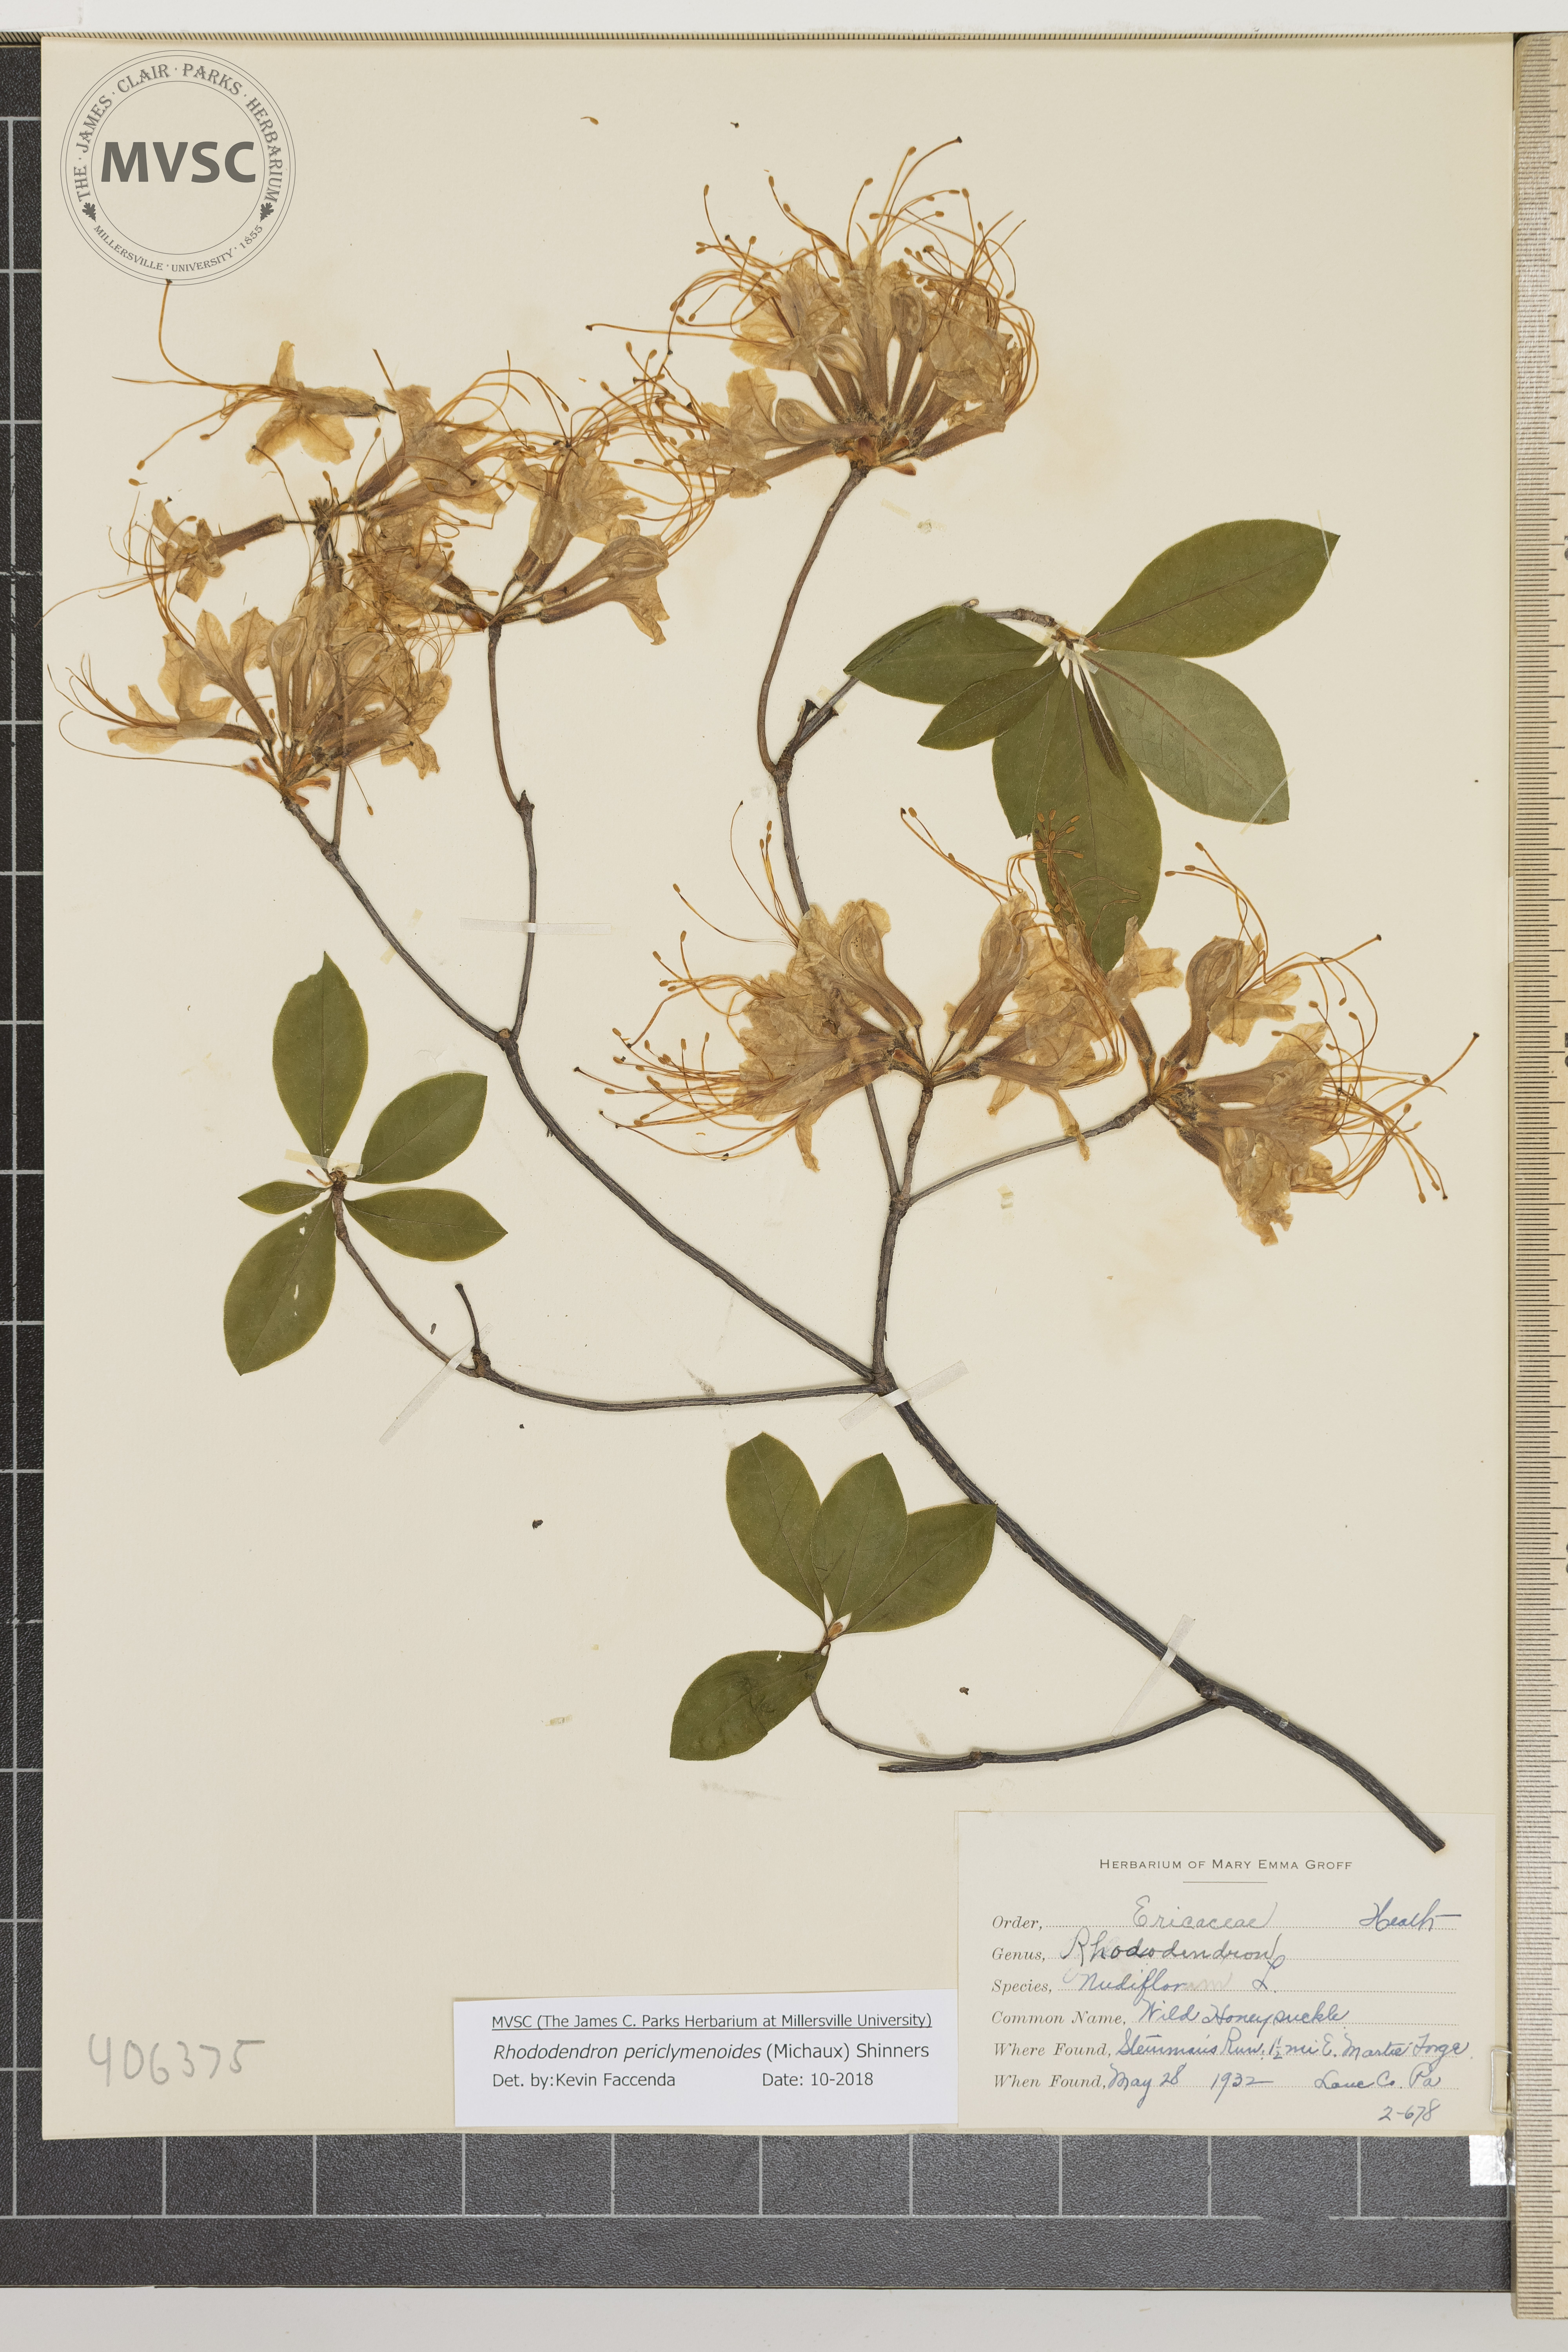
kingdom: Plantae
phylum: Tracheophyta
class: Magnoliopsida
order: Ericales
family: Ericaceae
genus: Rhododendron
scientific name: Rhododendron periclymenoides
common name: Wild Honeysuckle
